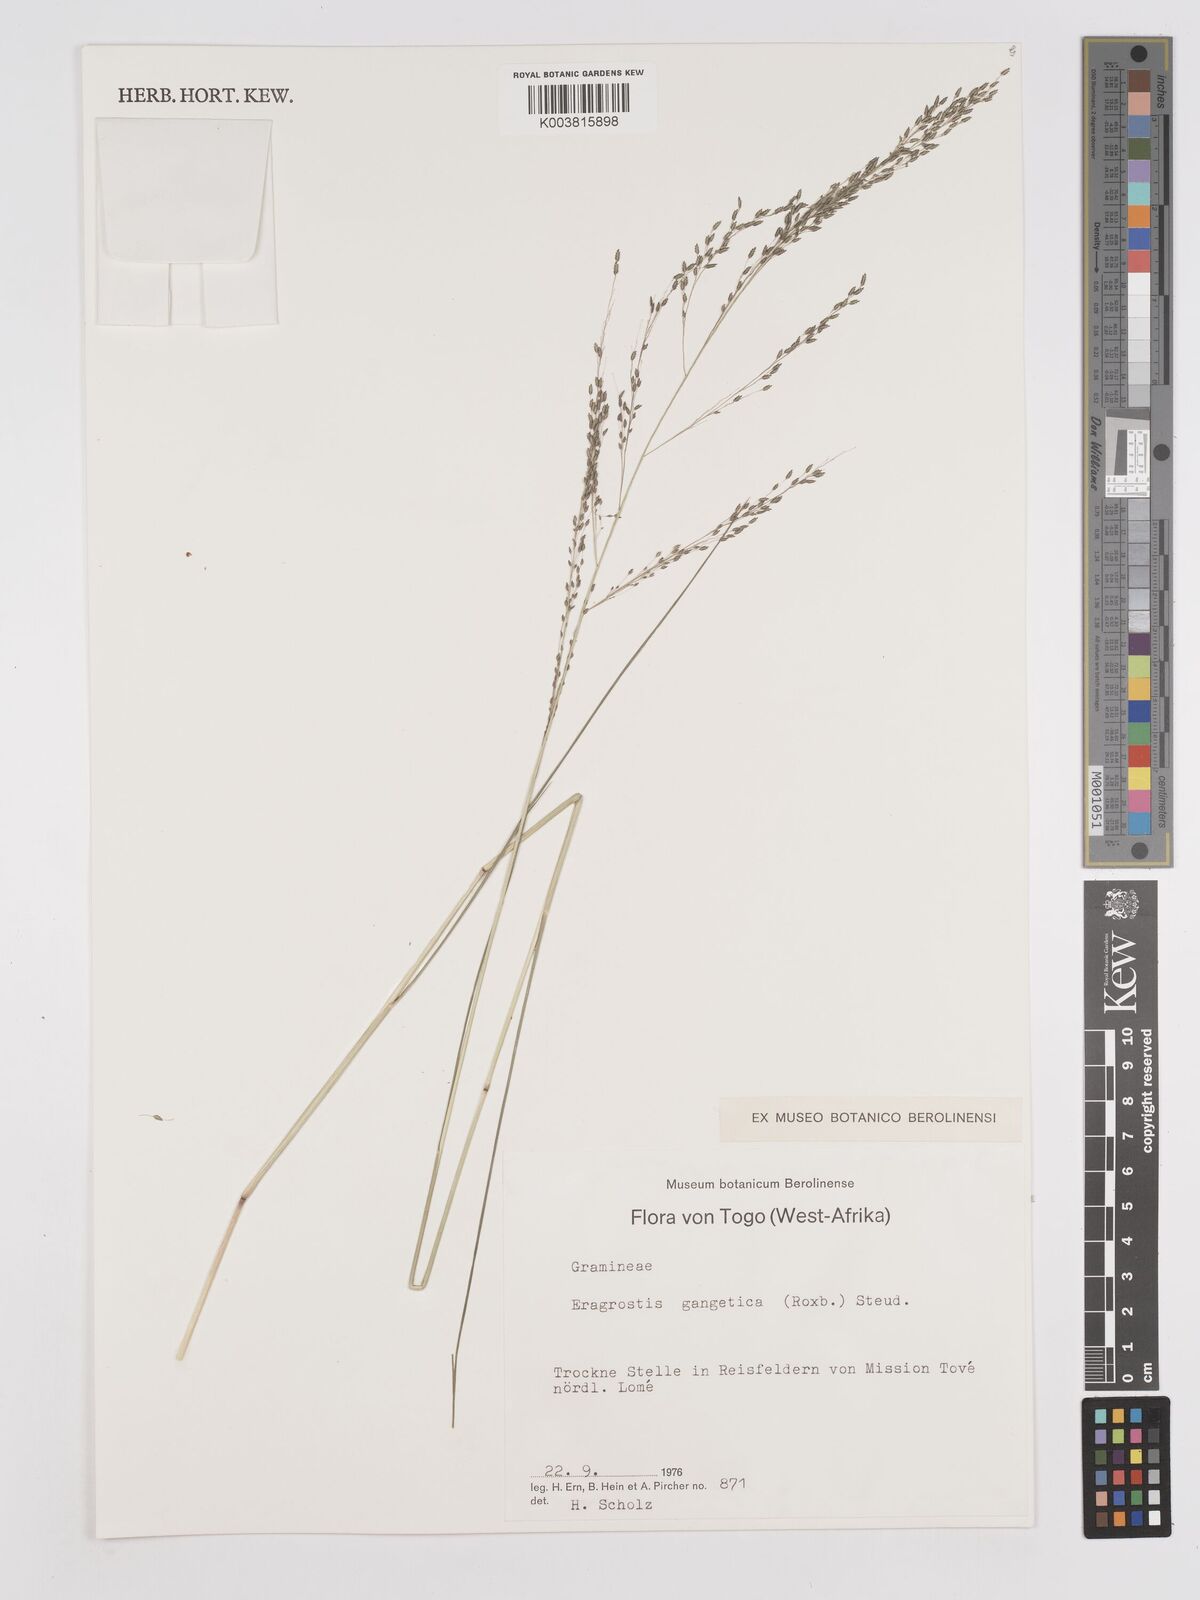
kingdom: Plantae
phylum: Tracheophyta
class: Liliopsida
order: Poales
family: Poaceae
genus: Eragrostis
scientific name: Eragrostis gangetica
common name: Slimflower lovegrass
